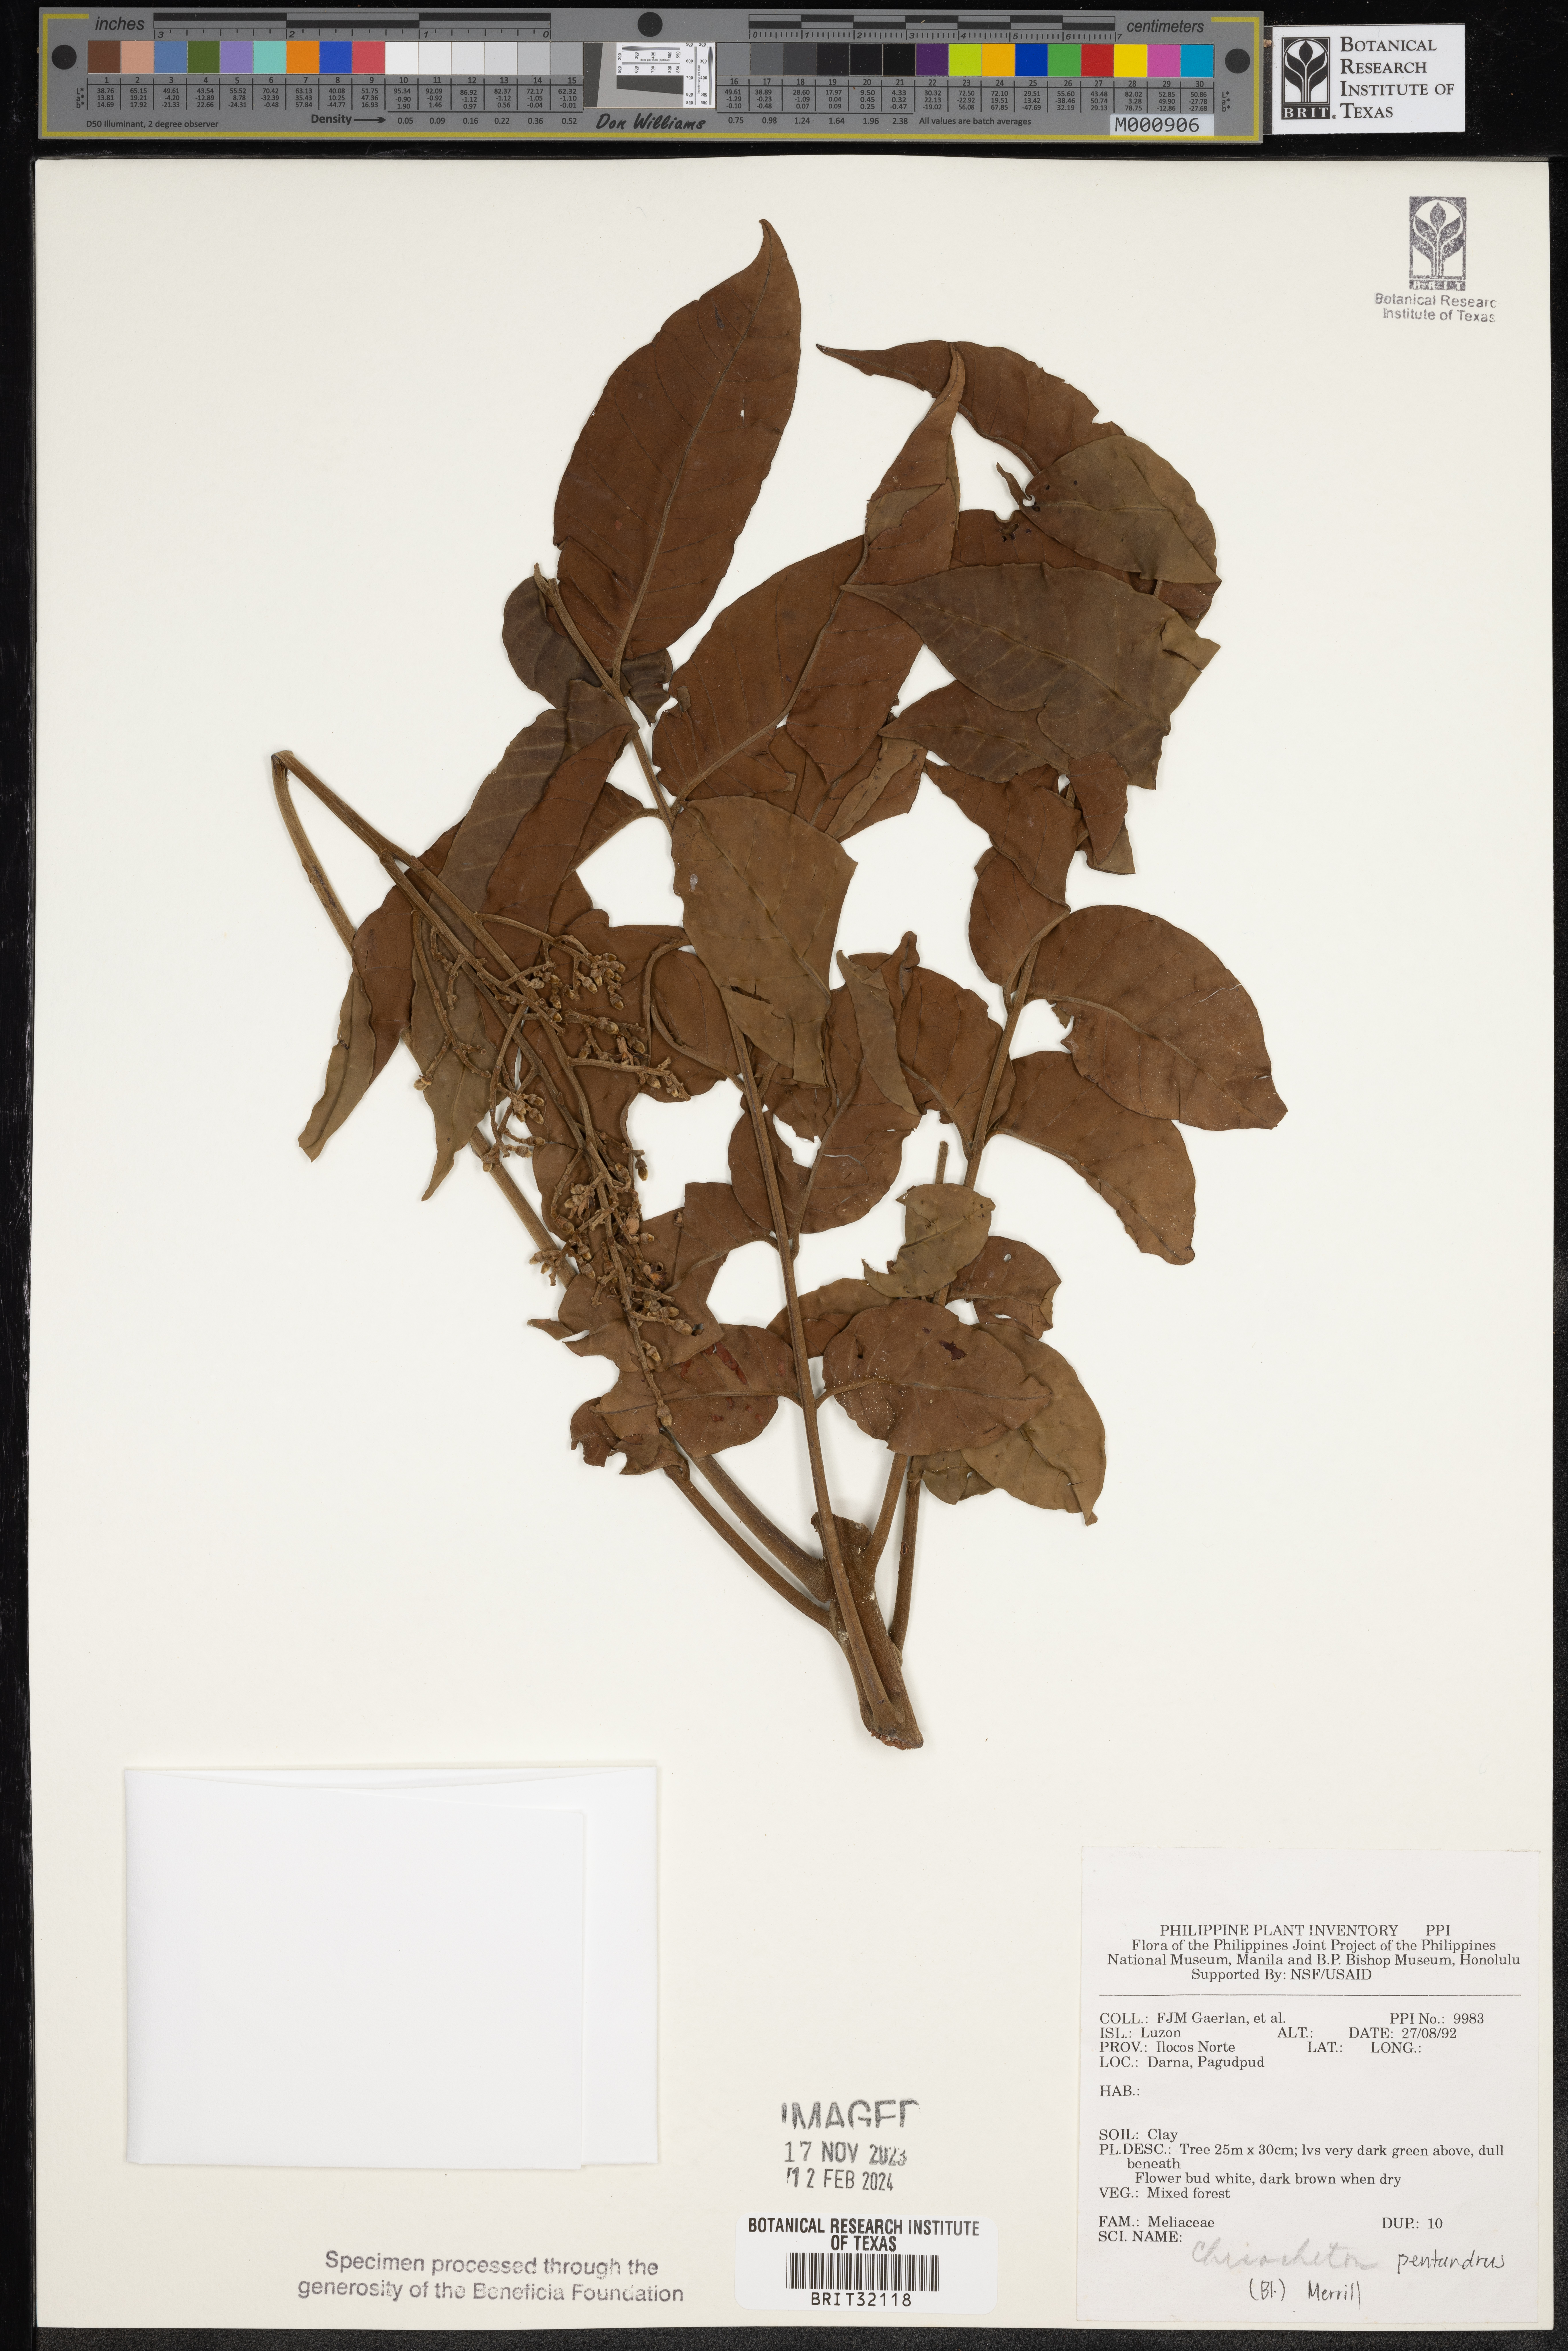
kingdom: Plantae
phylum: Tracheophyta
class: Magnoliopsida
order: Sapindales
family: Meliaceae
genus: Chisocheton
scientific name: Chisocheton pentandrus
